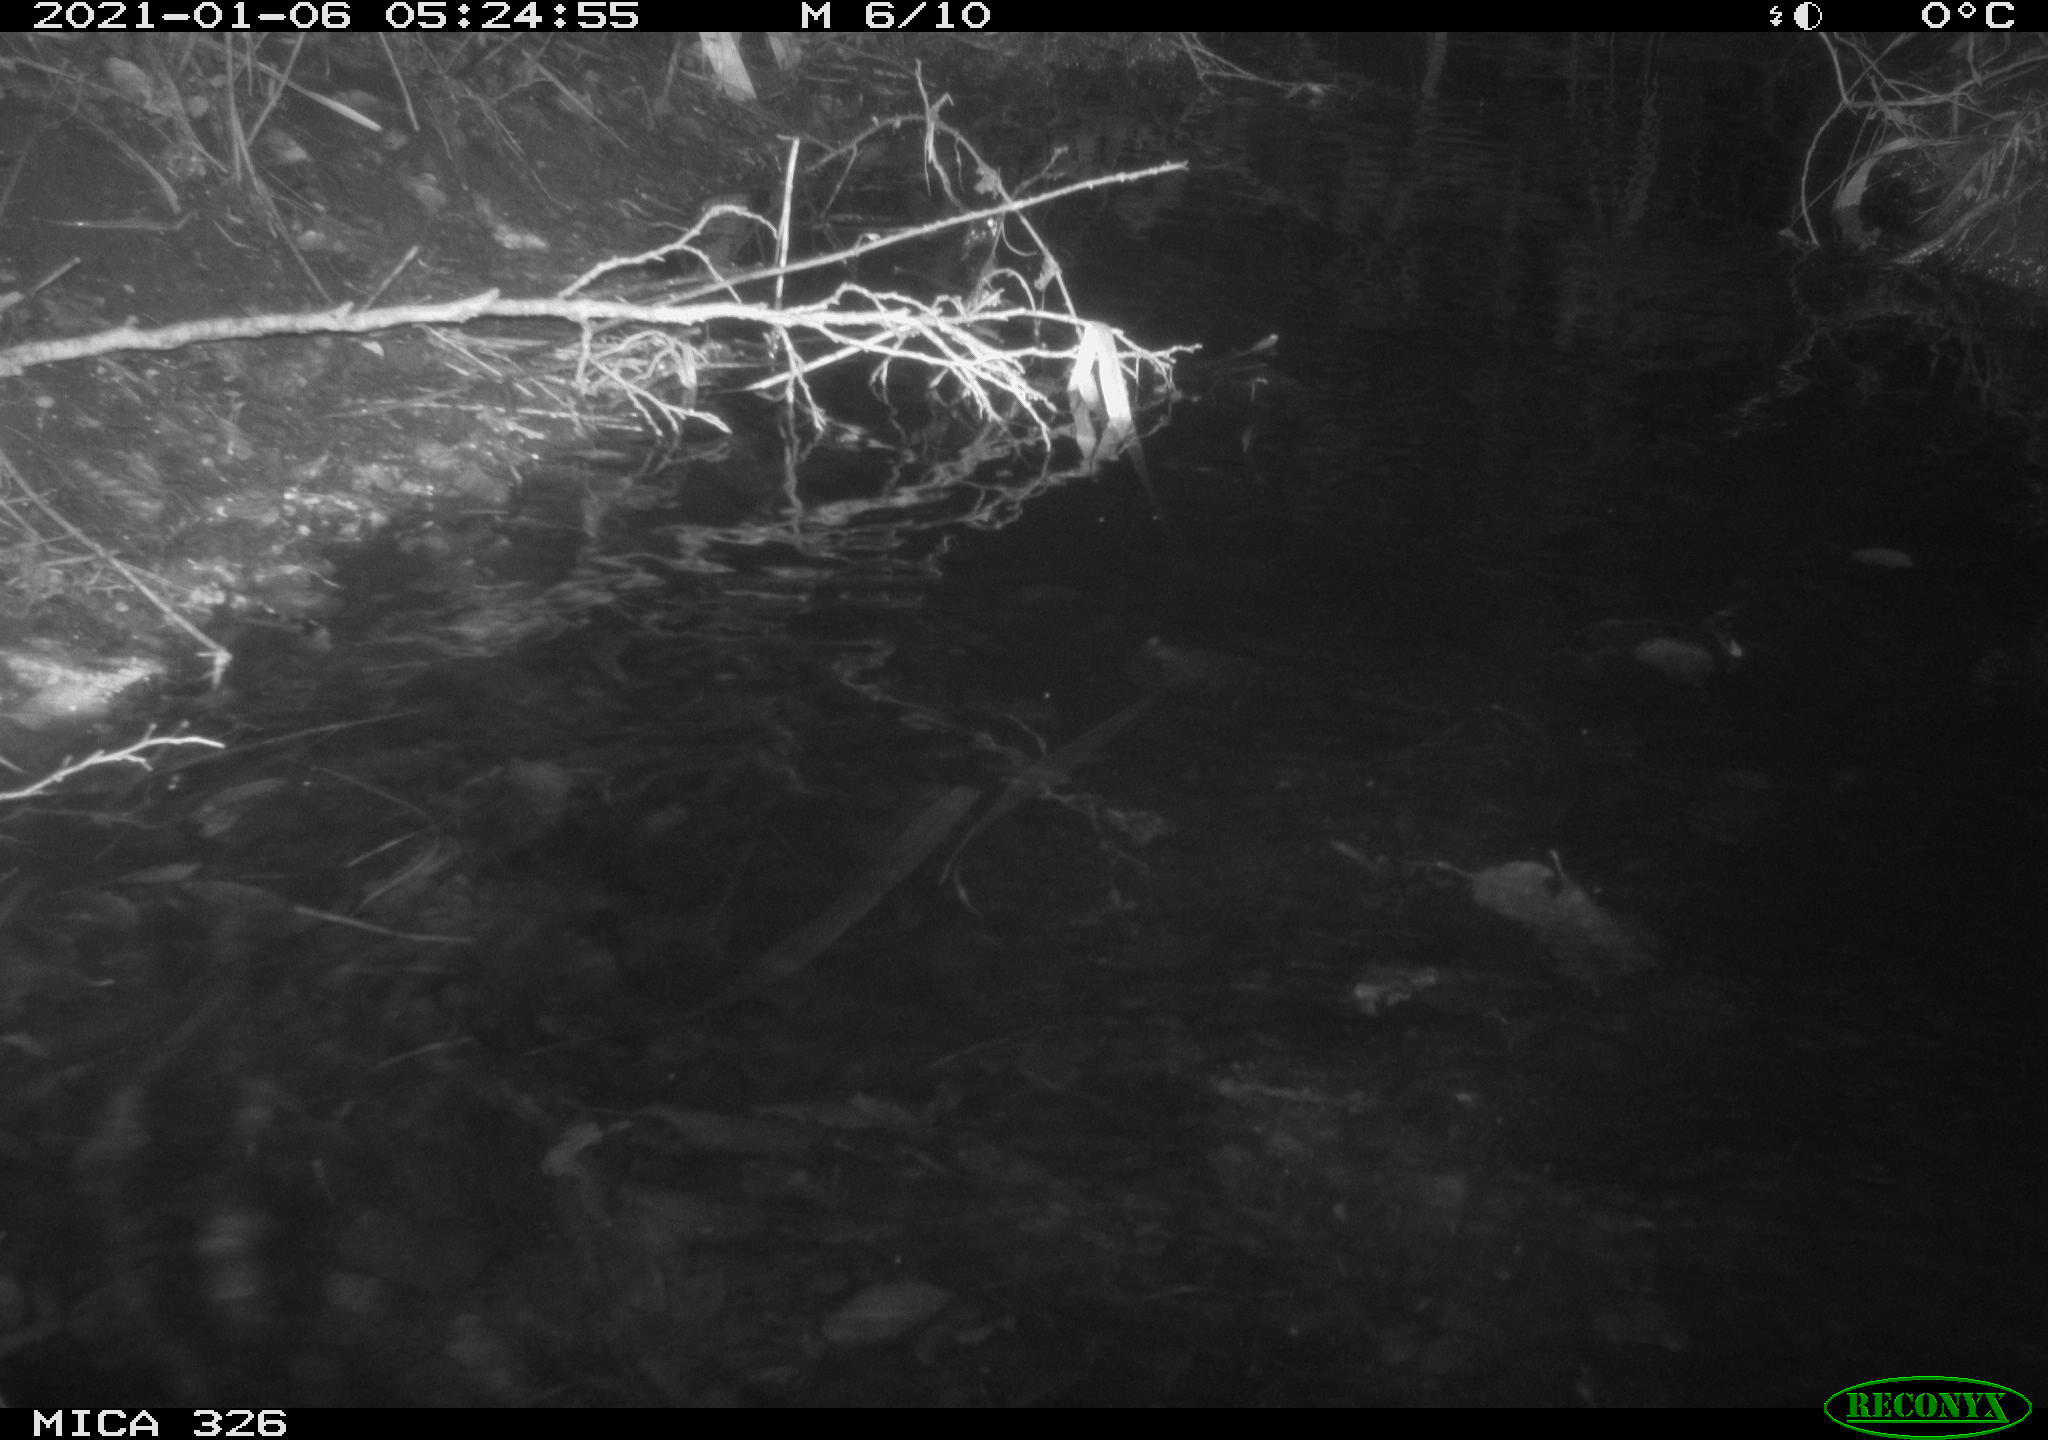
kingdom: Animalia
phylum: Chordata
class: Mammalia
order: Rodentia
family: Myocastoridae
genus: Myocastor
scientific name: Myocastor coypus
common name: Coypu
